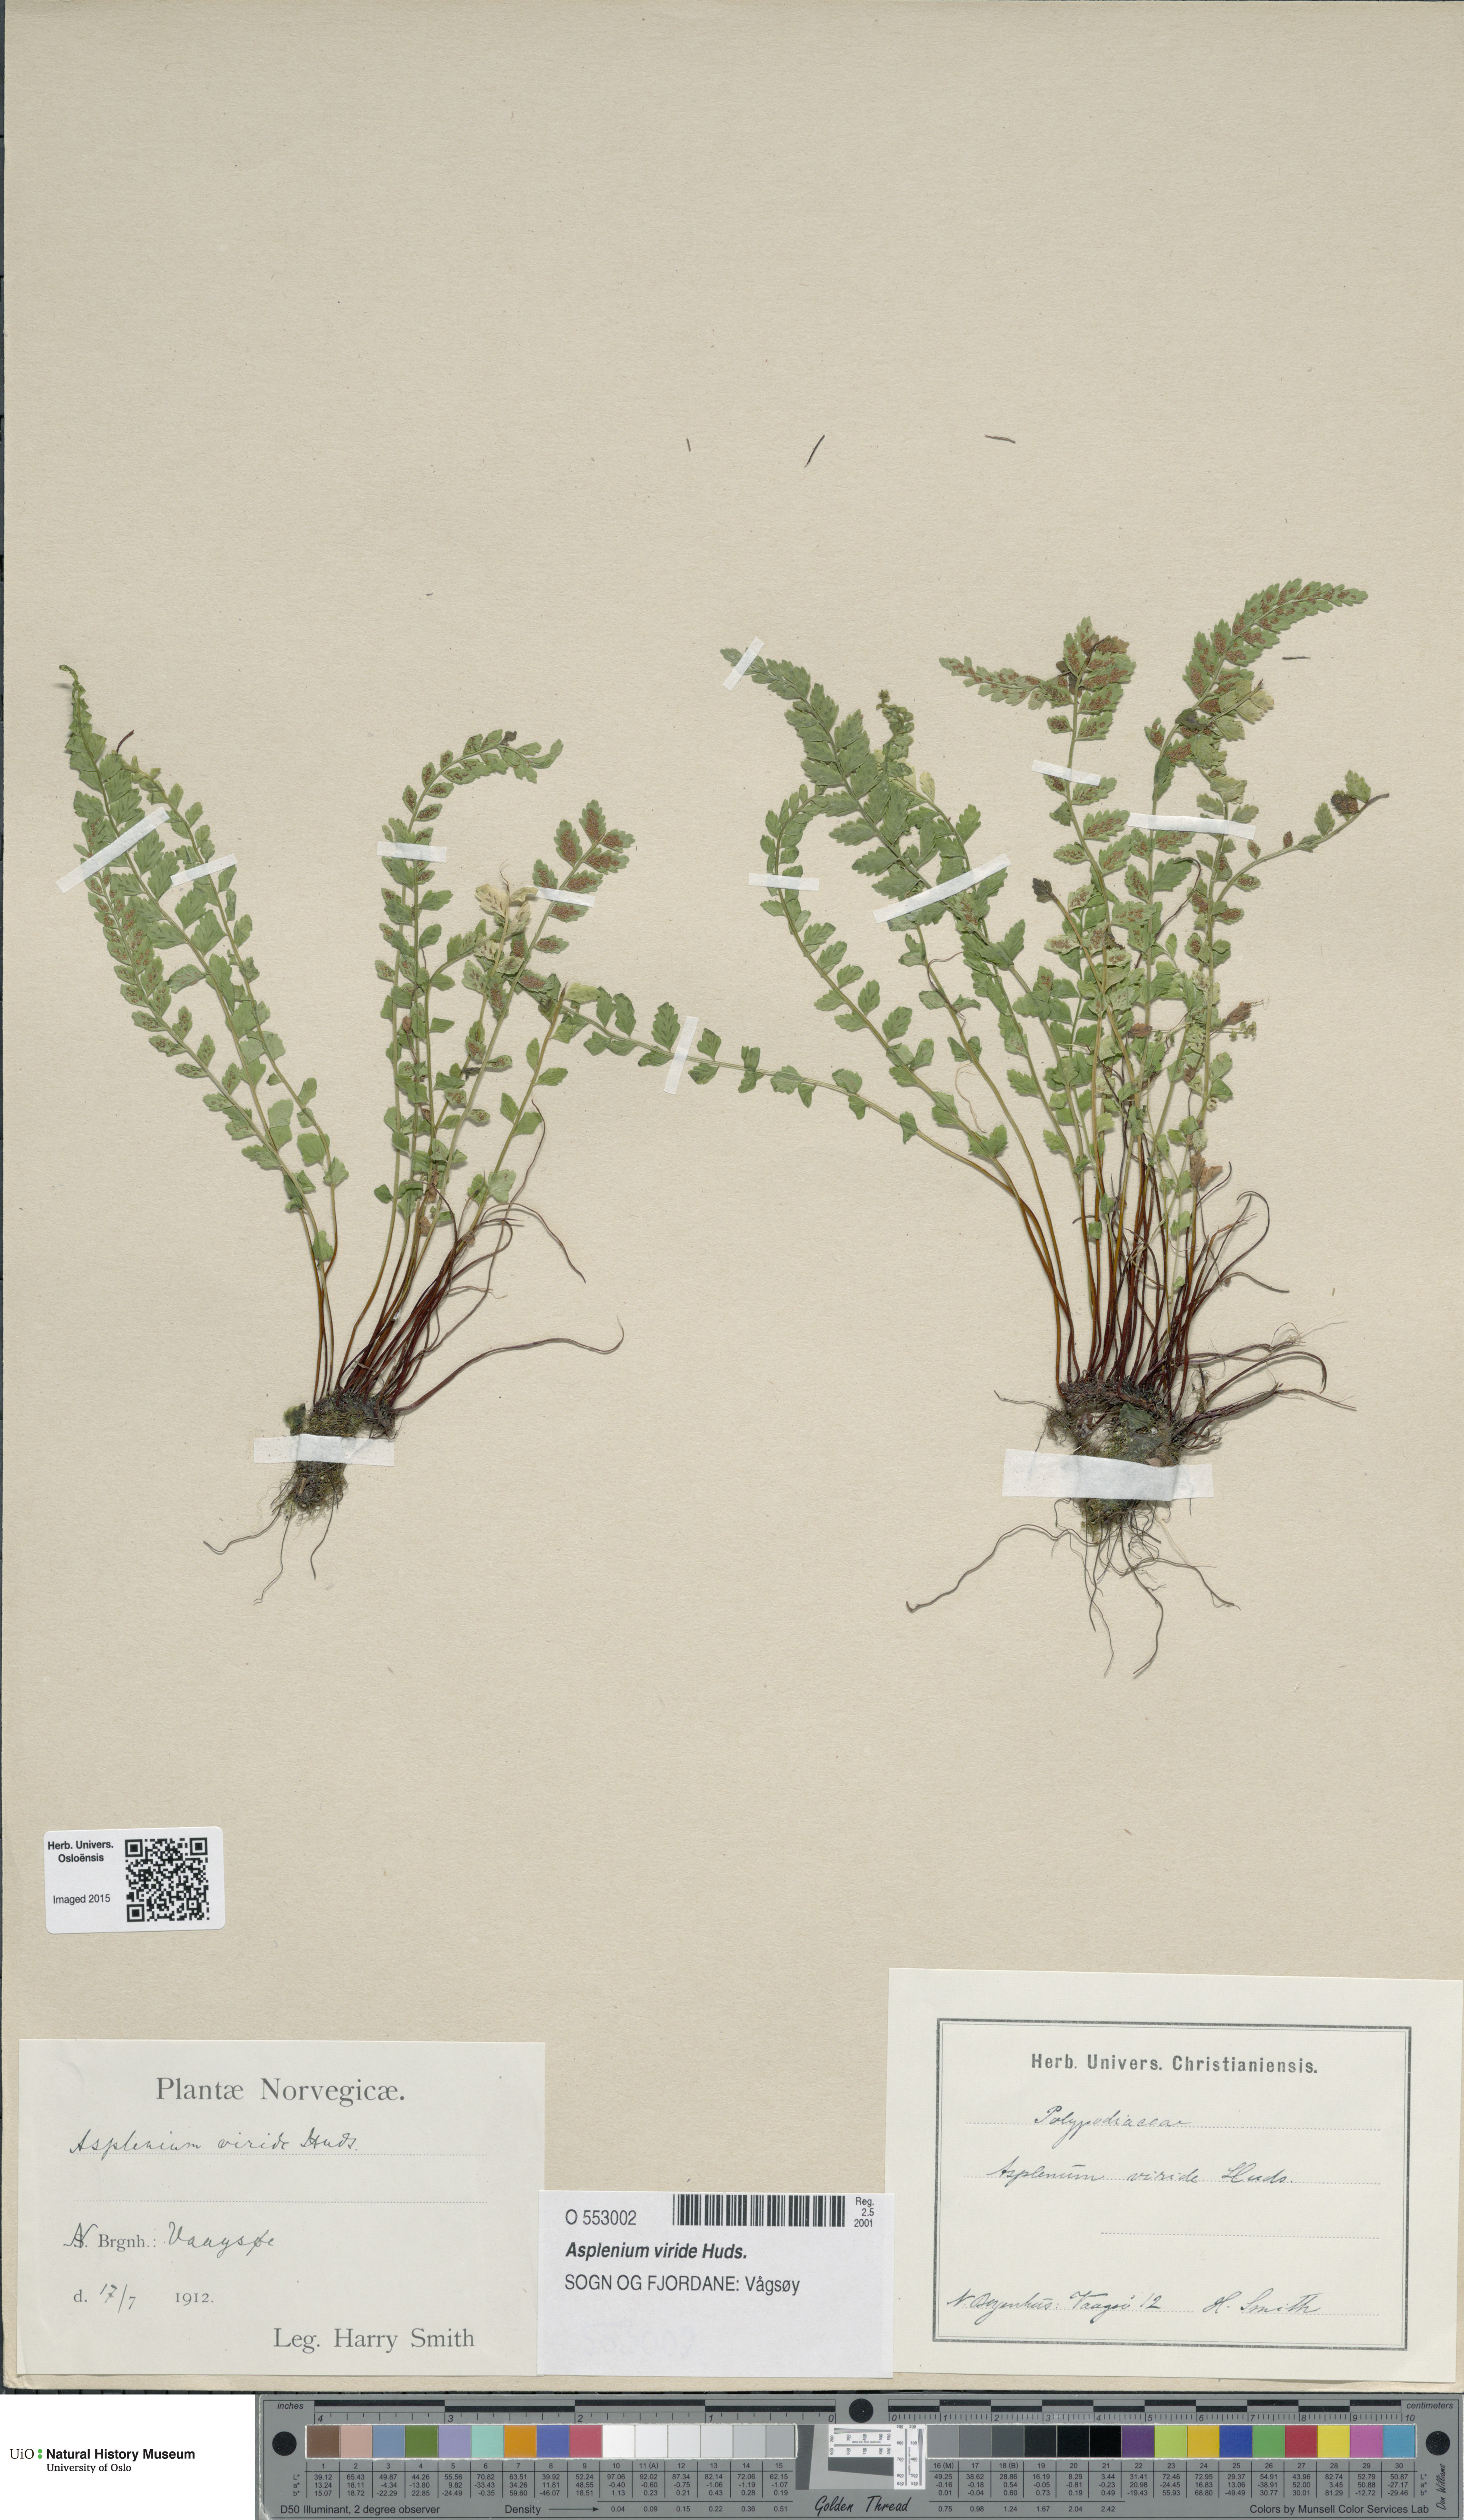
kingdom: Plantae
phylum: Tracheophyta
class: Polypodiopsida
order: Polypodiales
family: Aspleniaceae
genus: Asplenium
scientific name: Asplenium viride
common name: Green spleenwort
